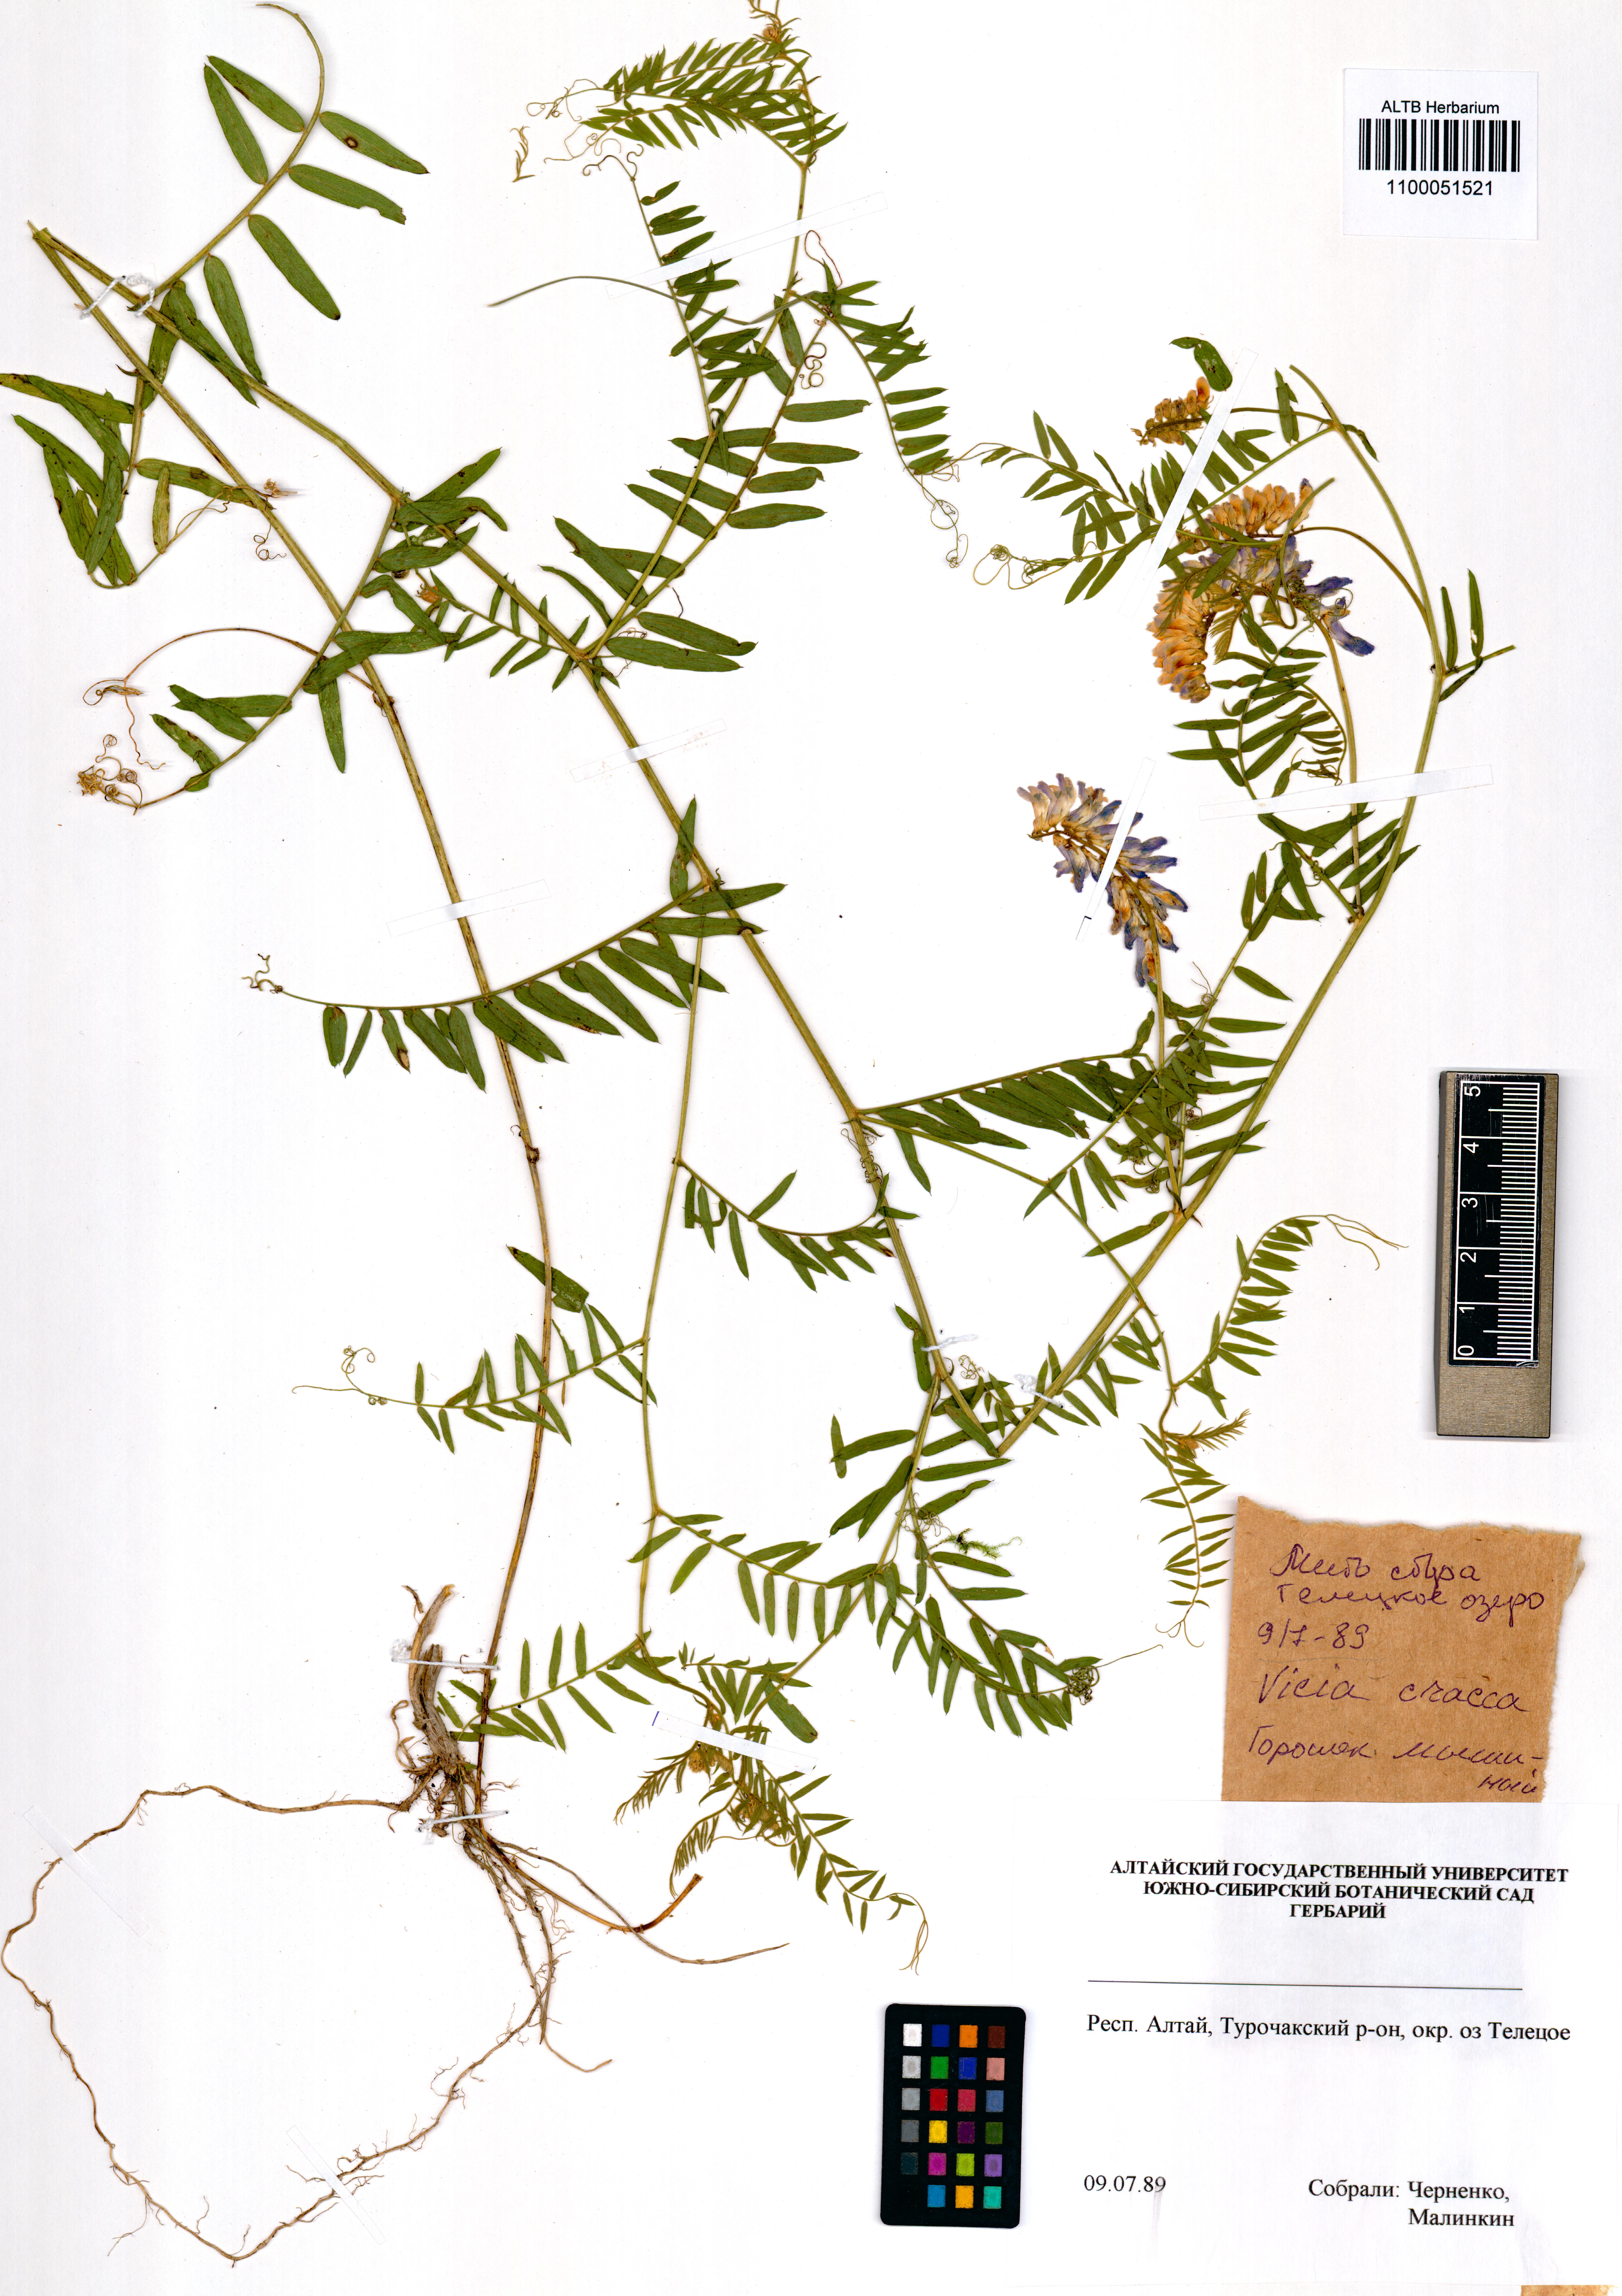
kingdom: Plantae
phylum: Tracheophyta
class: Magnoliopsida
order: Fabales
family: Fabaceae
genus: Vicia
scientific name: Vicia cracca
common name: Bird vetch
